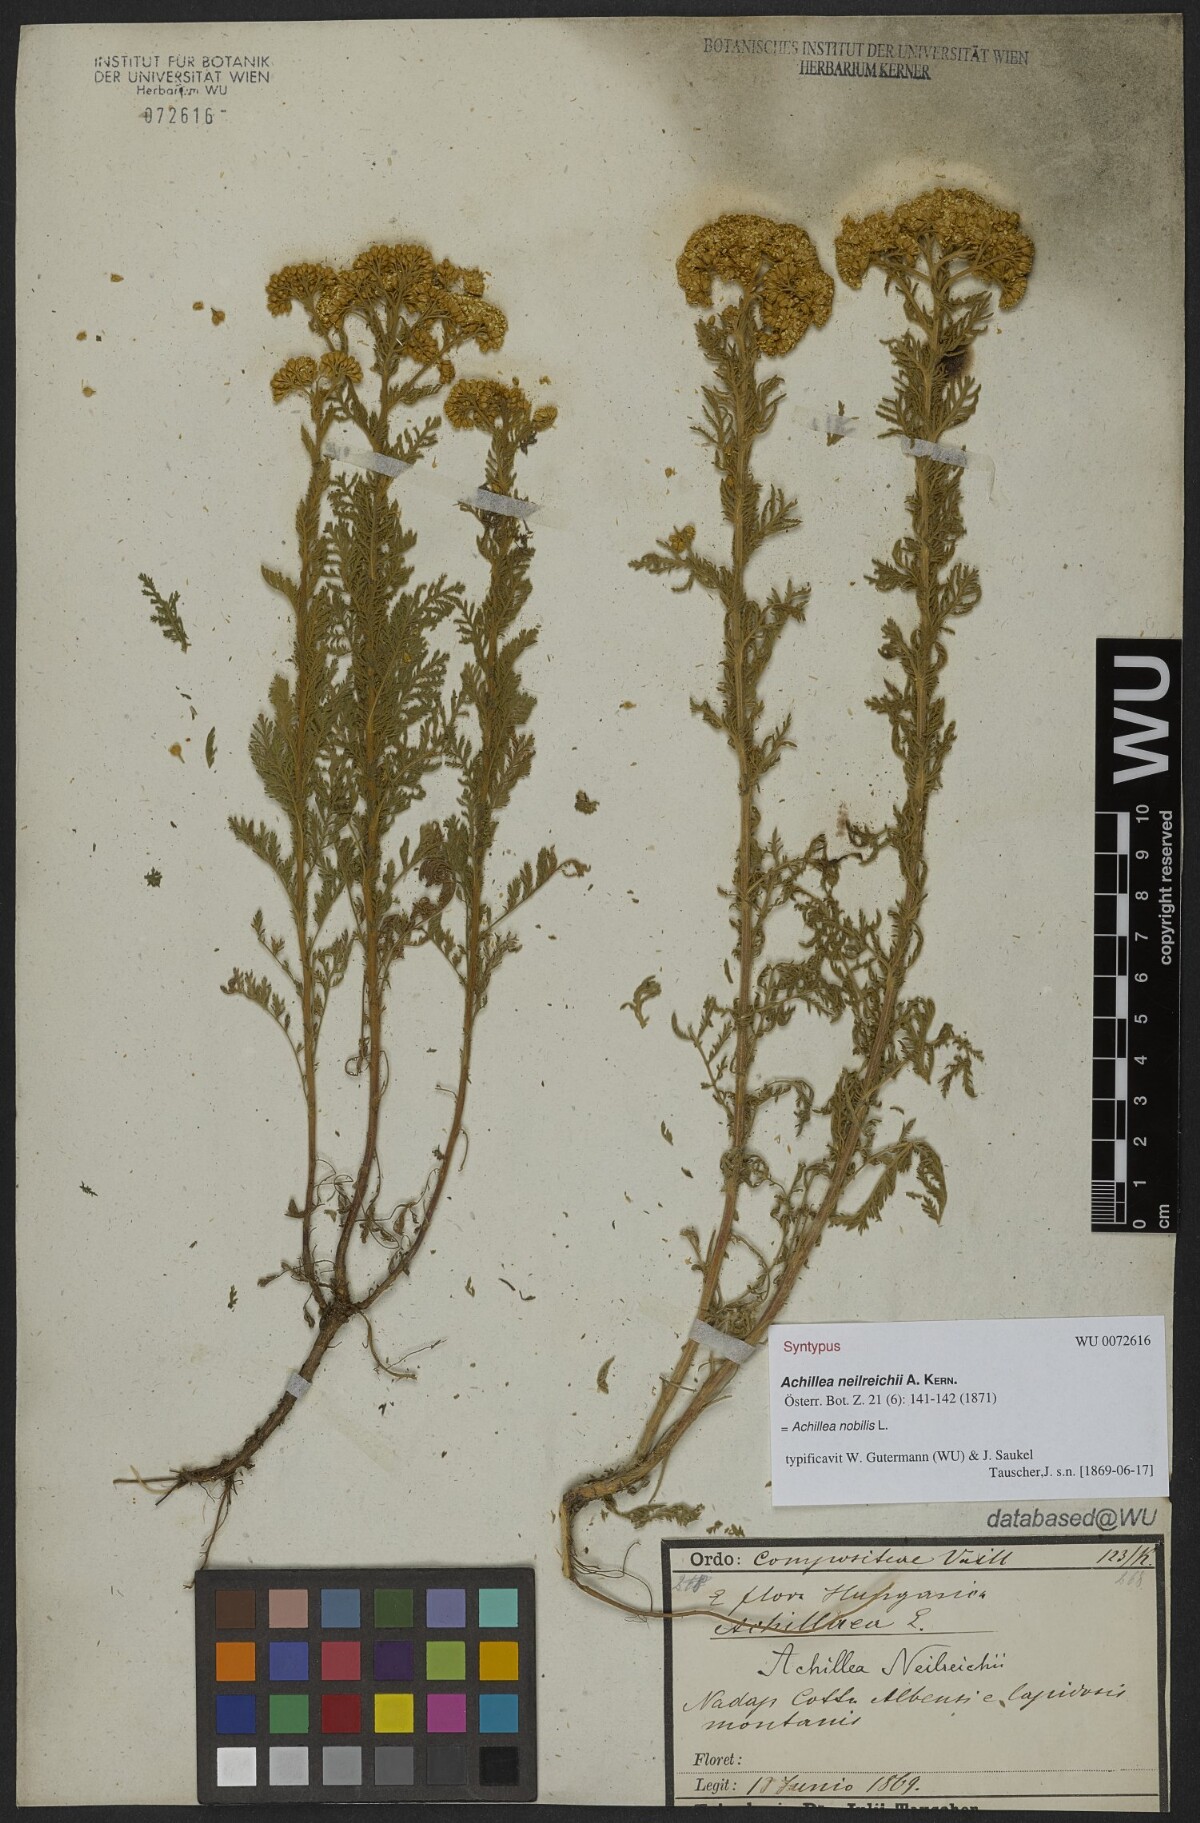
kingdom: Plantae
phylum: Tracheophyta
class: Magnoliopsida
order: Asterales
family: Asteraceae
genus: Achillea
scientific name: Achillea nobilis
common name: Noble yarrow
